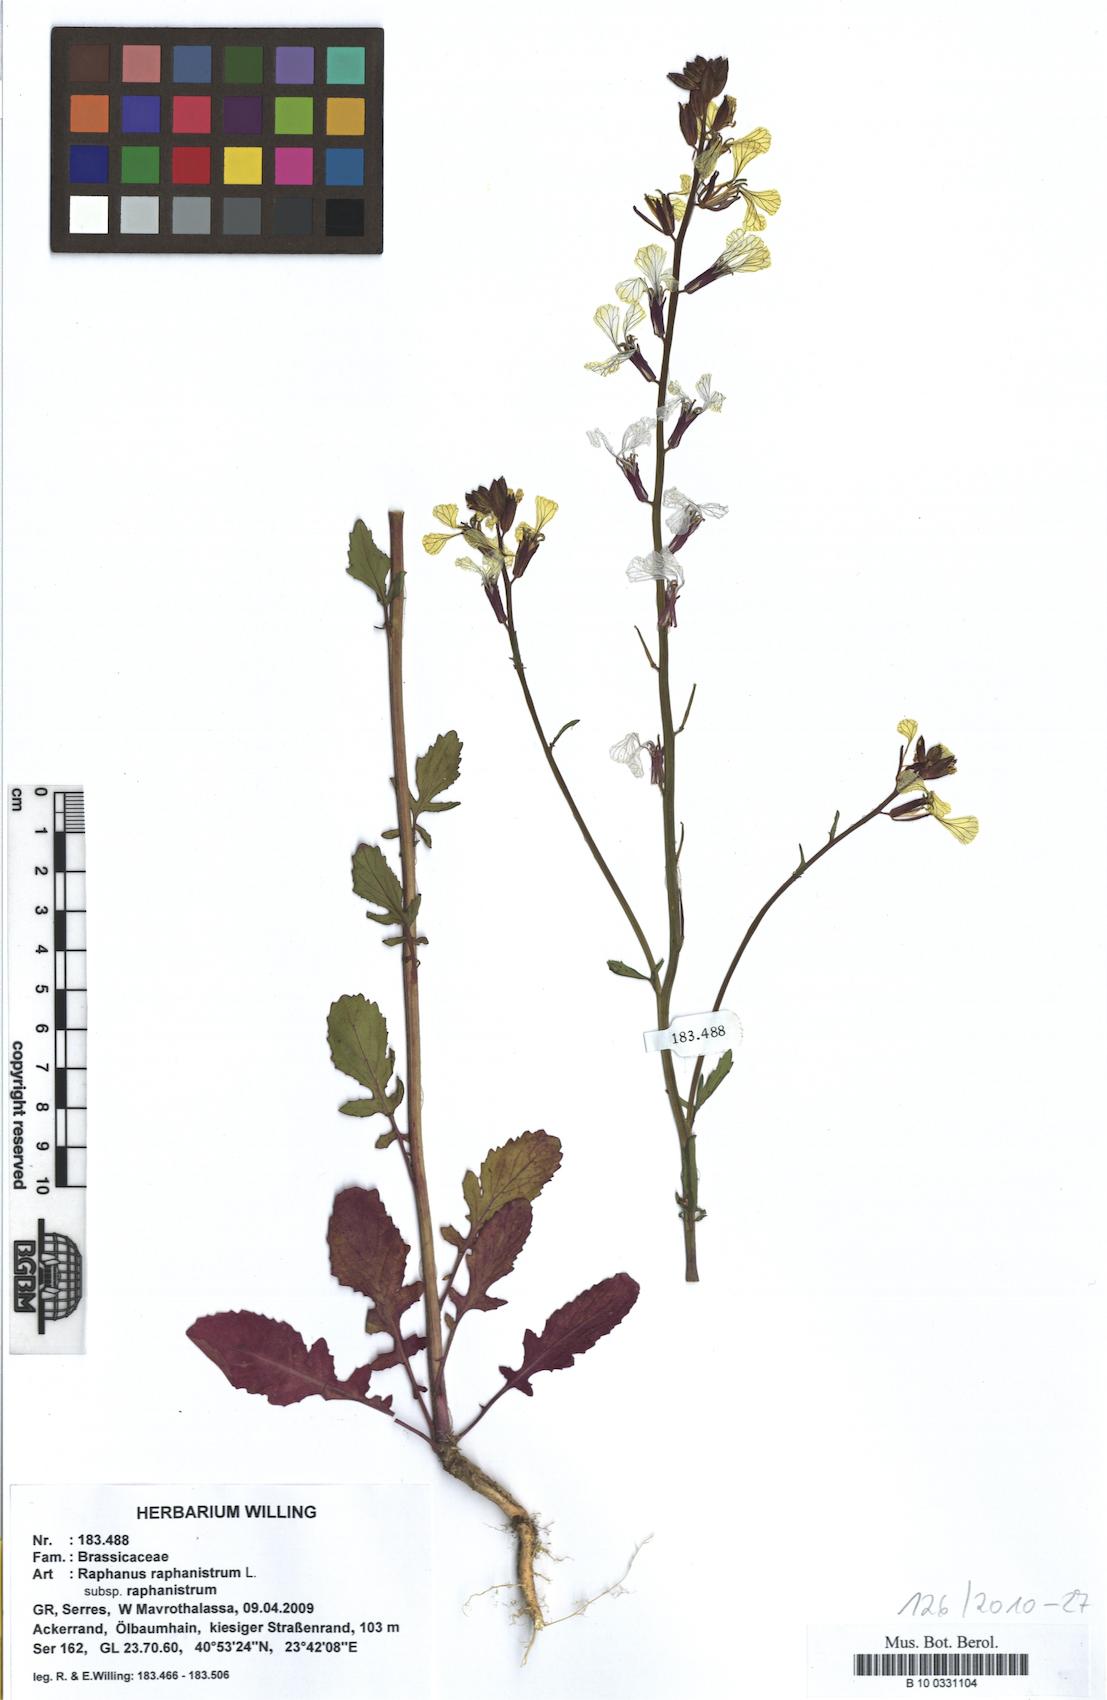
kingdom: Plantae
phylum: Tracheophyta
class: Magnoliopsida
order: Brassicales
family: Brassicaceae
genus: Raphanus
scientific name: Raphanus raphanistrum
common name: Wild radish
